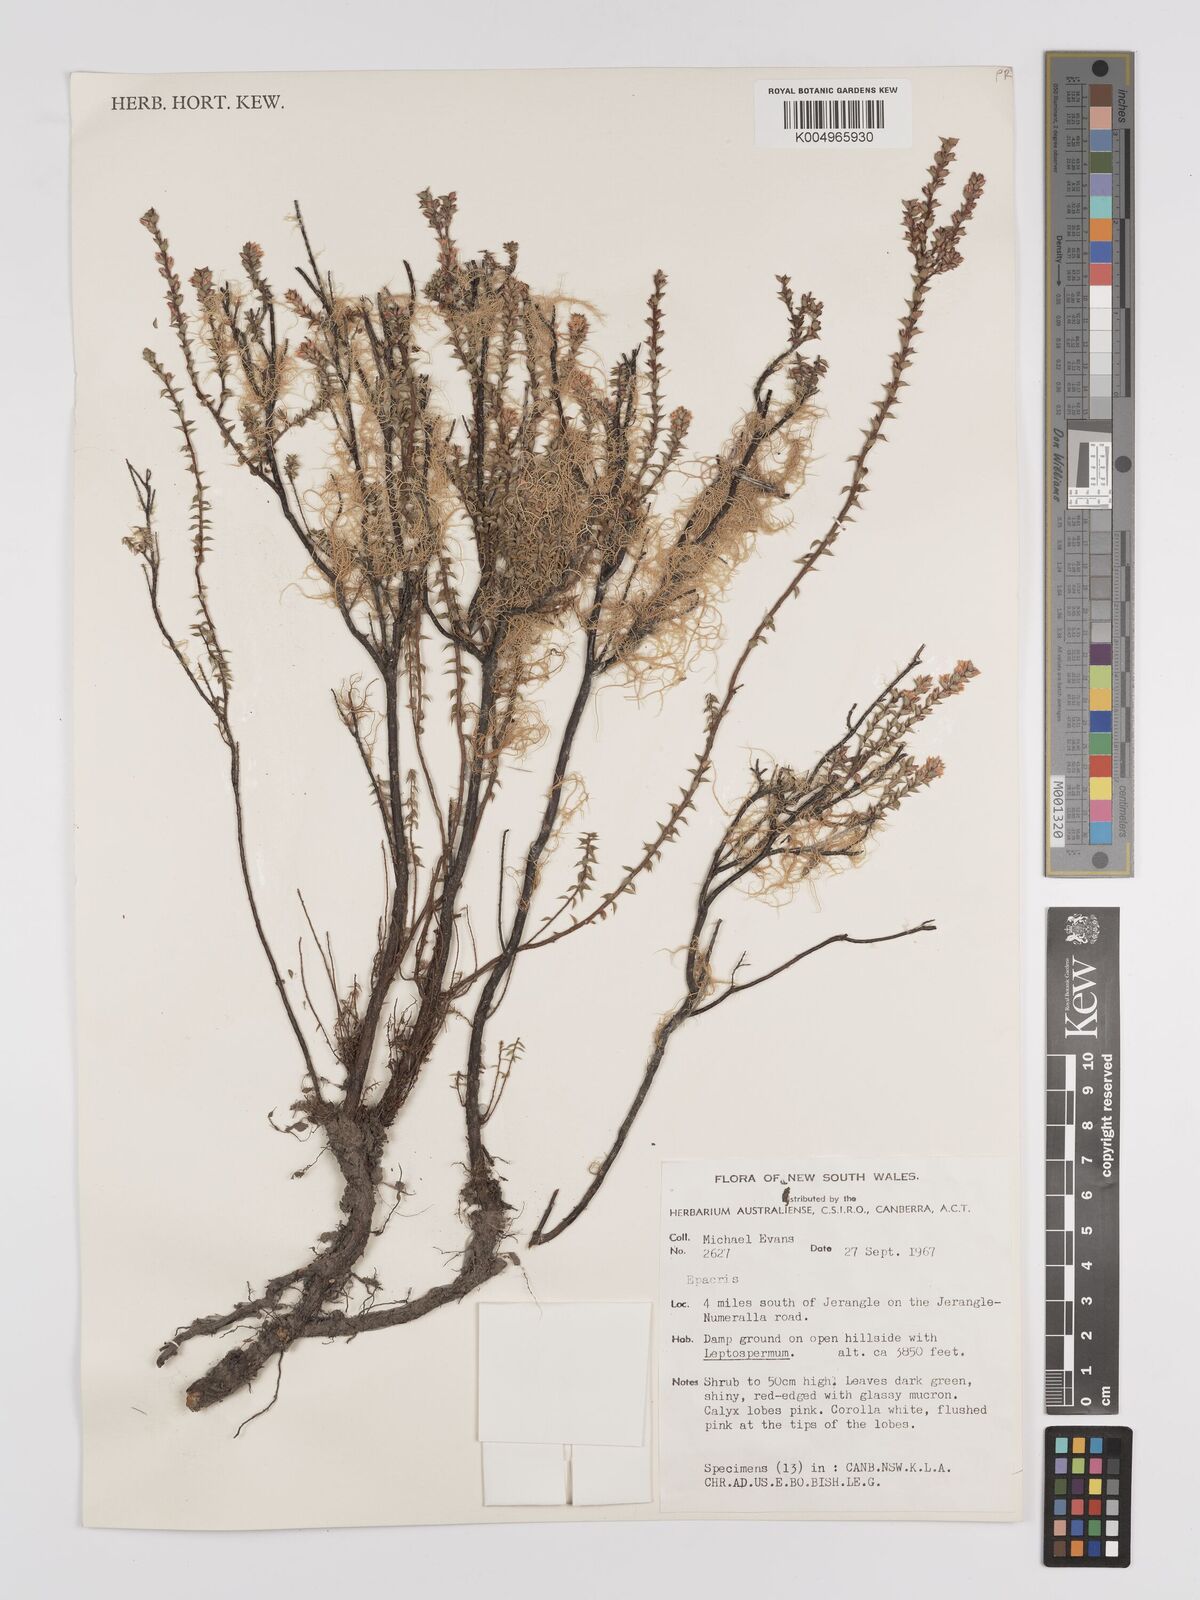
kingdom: Plantae
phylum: Tracheophyta
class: Magnoliopsida
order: Ericales
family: Ericaceae
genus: Epacris
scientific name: Epacris
